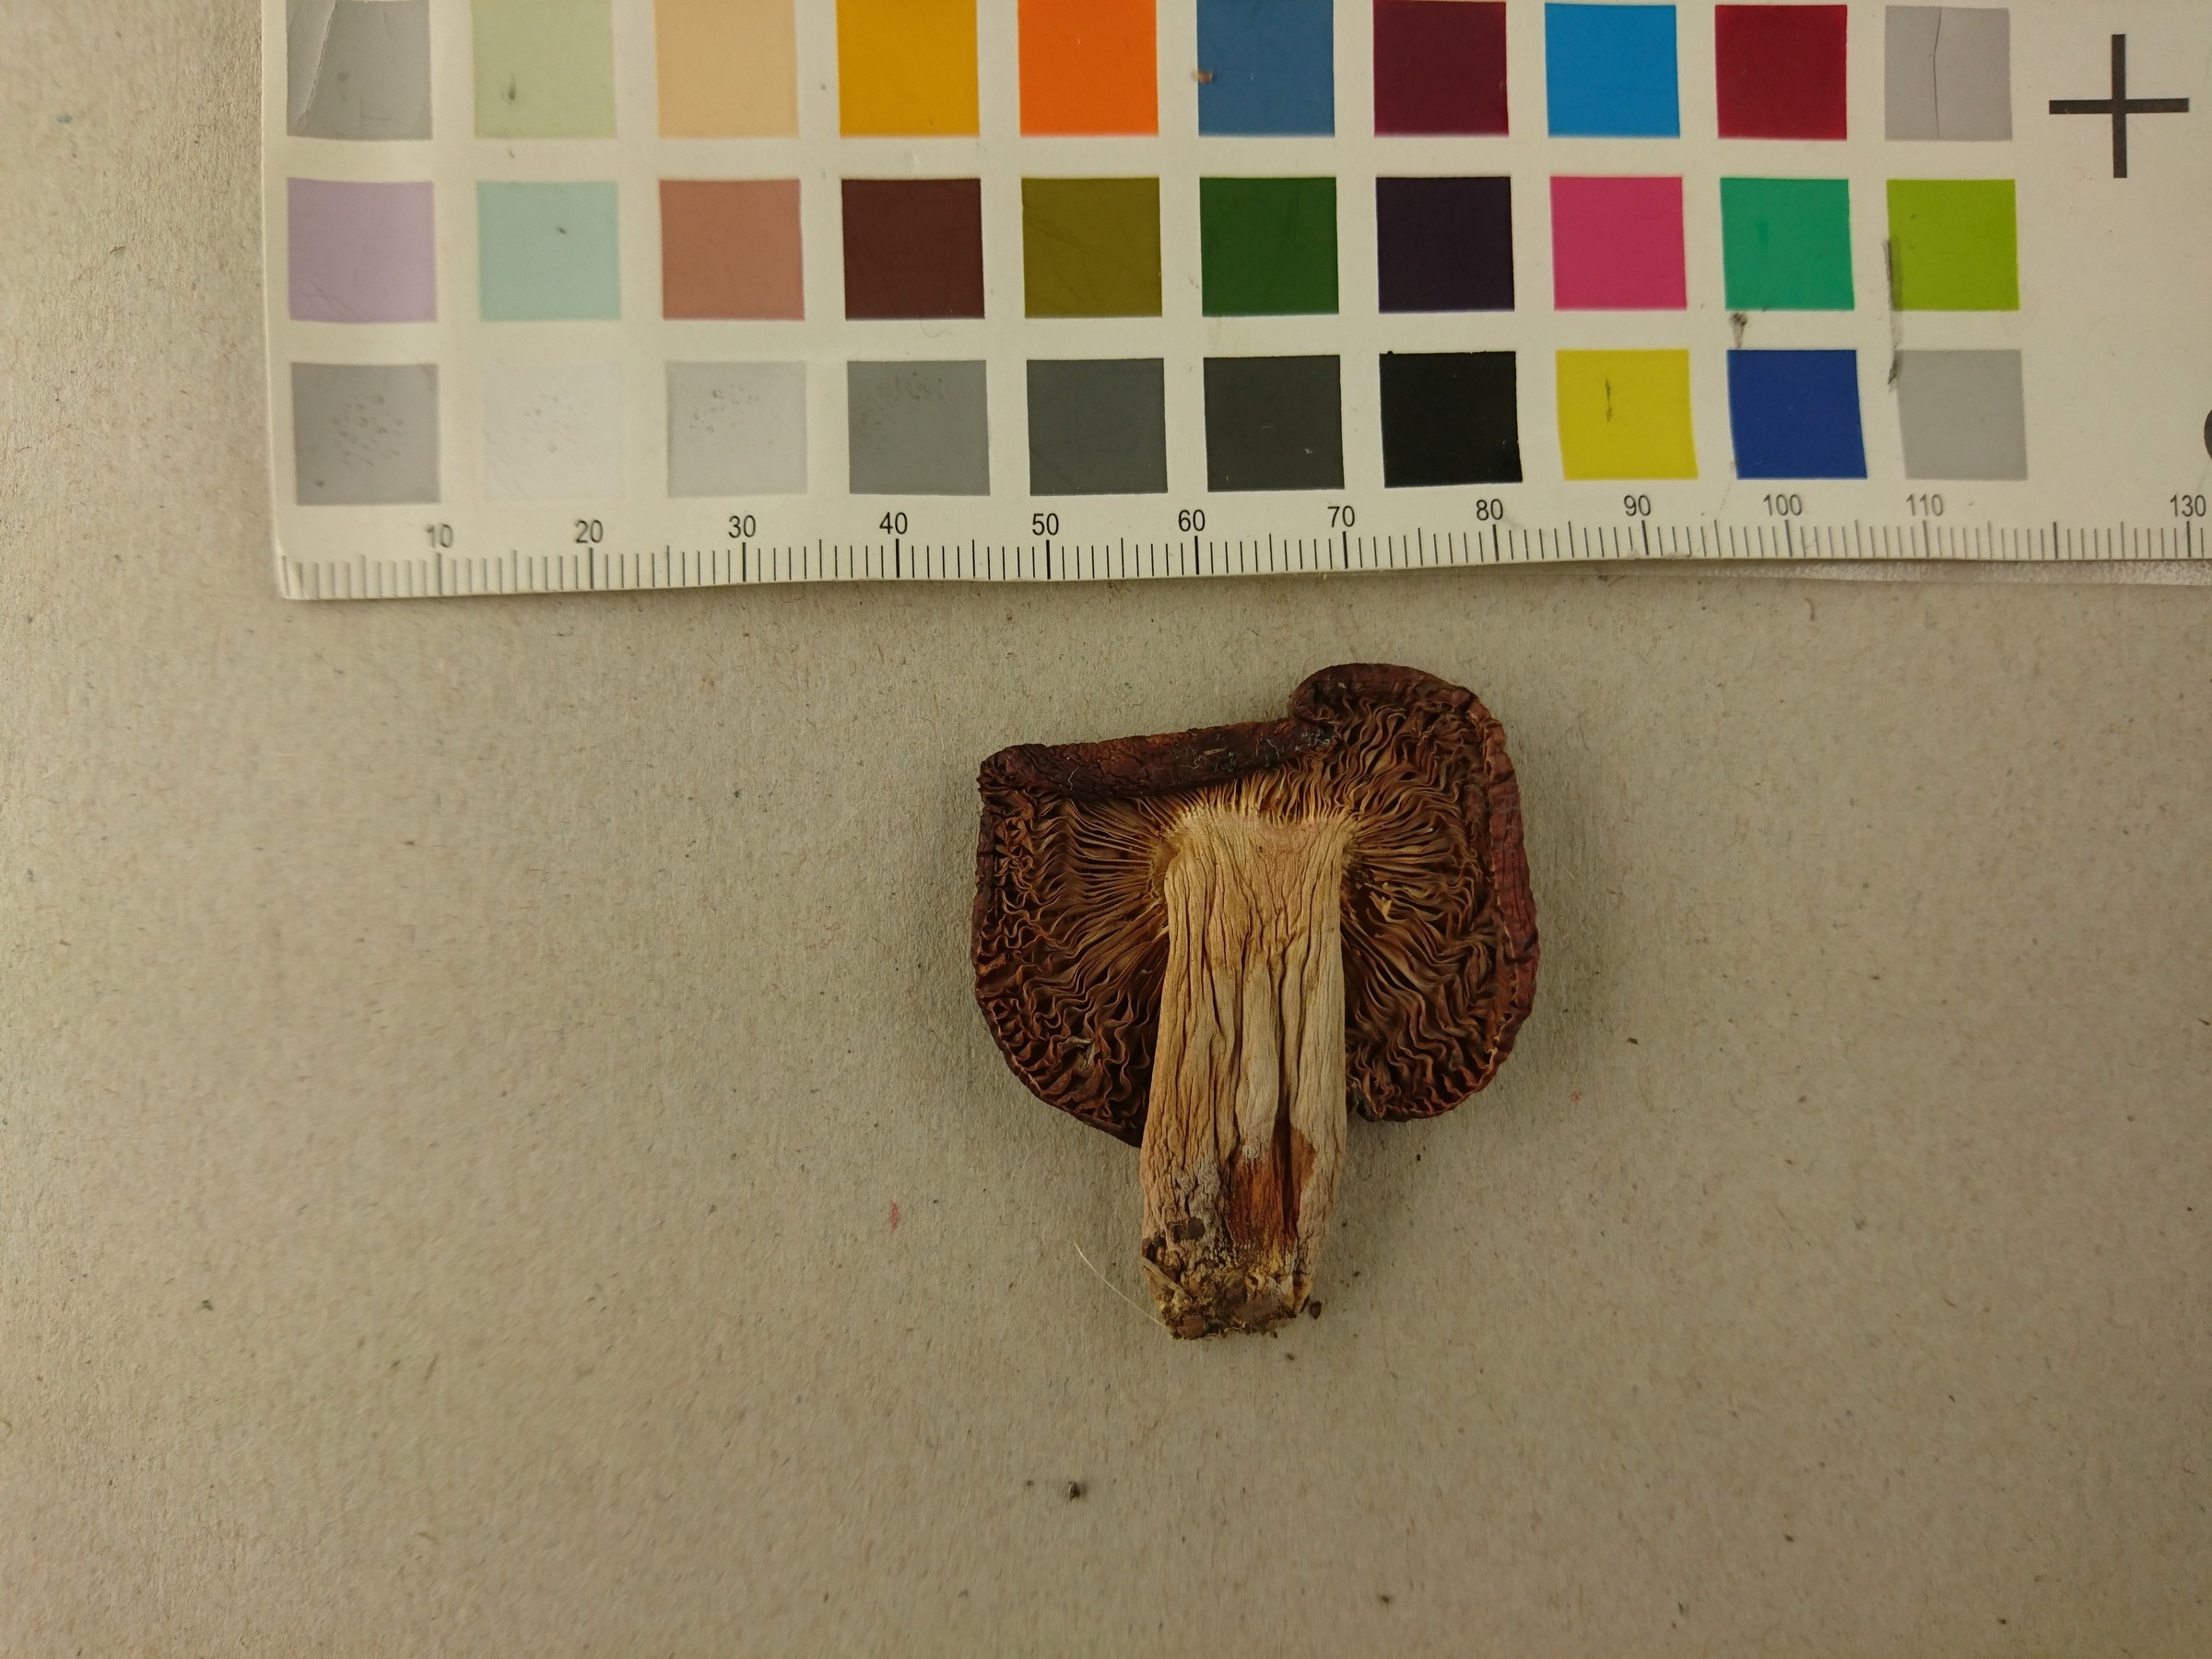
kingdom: Fungi
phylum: Basidiomycota
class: Agaricomycetes
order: Russulales
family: Russulaceae
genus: Russula
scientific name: Russula faginea
